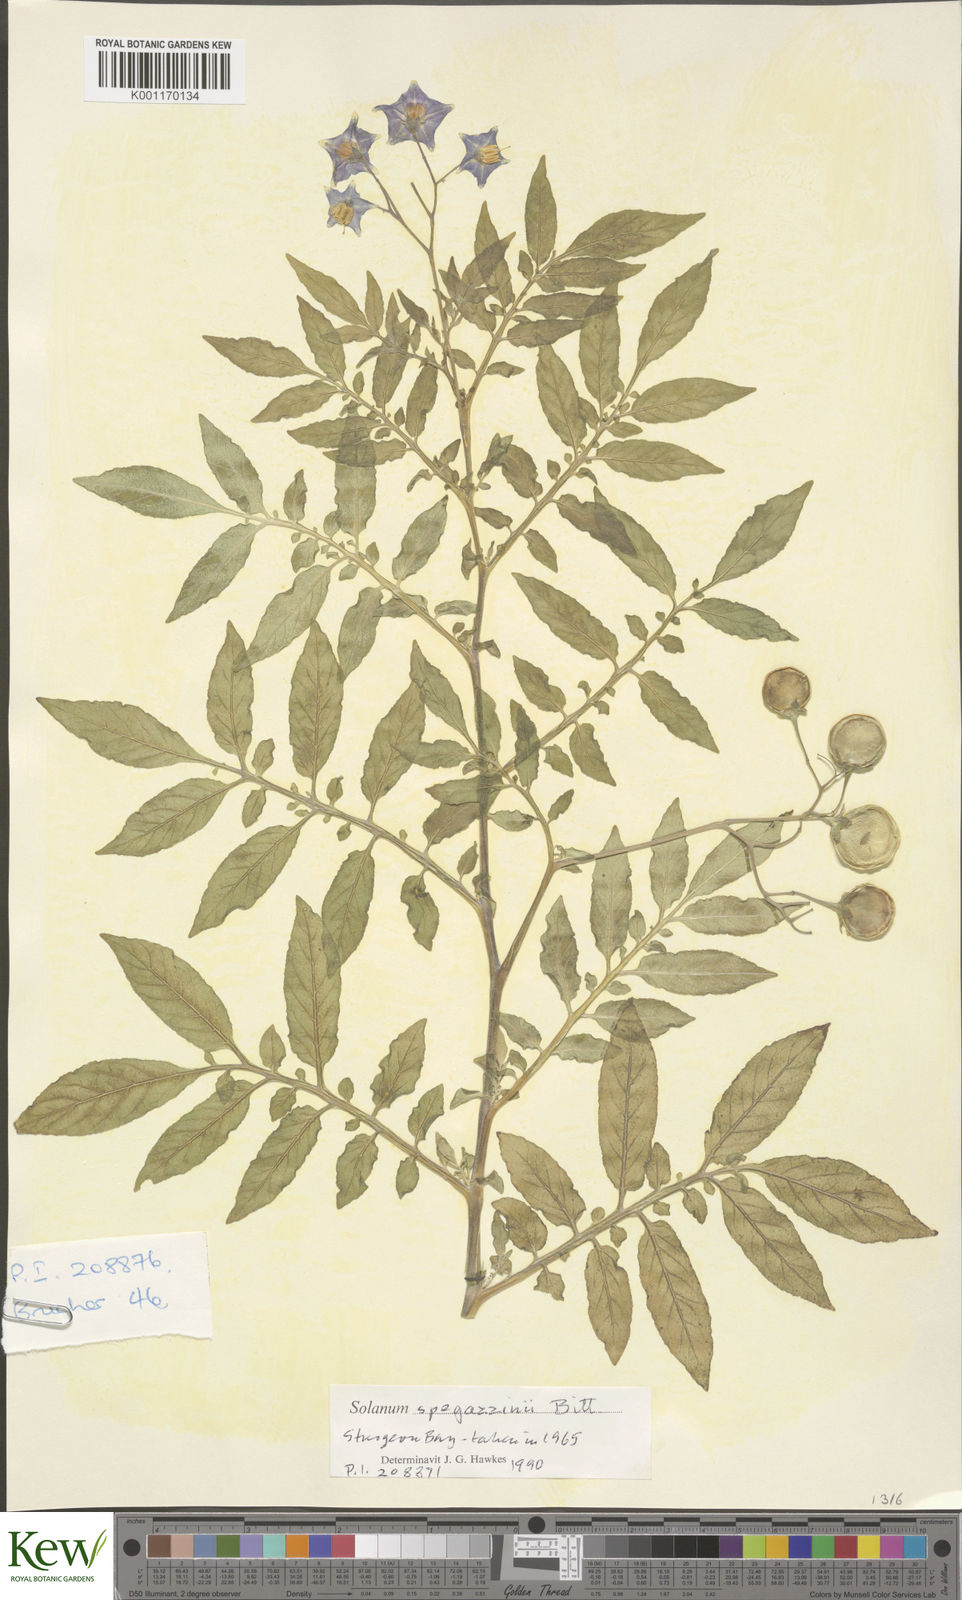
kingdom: Plantae
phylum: Tracheophyta
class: Magnoliopsida
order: Solanales
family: Solanaceae
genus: Solanum
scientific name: Solanum brevicaule
